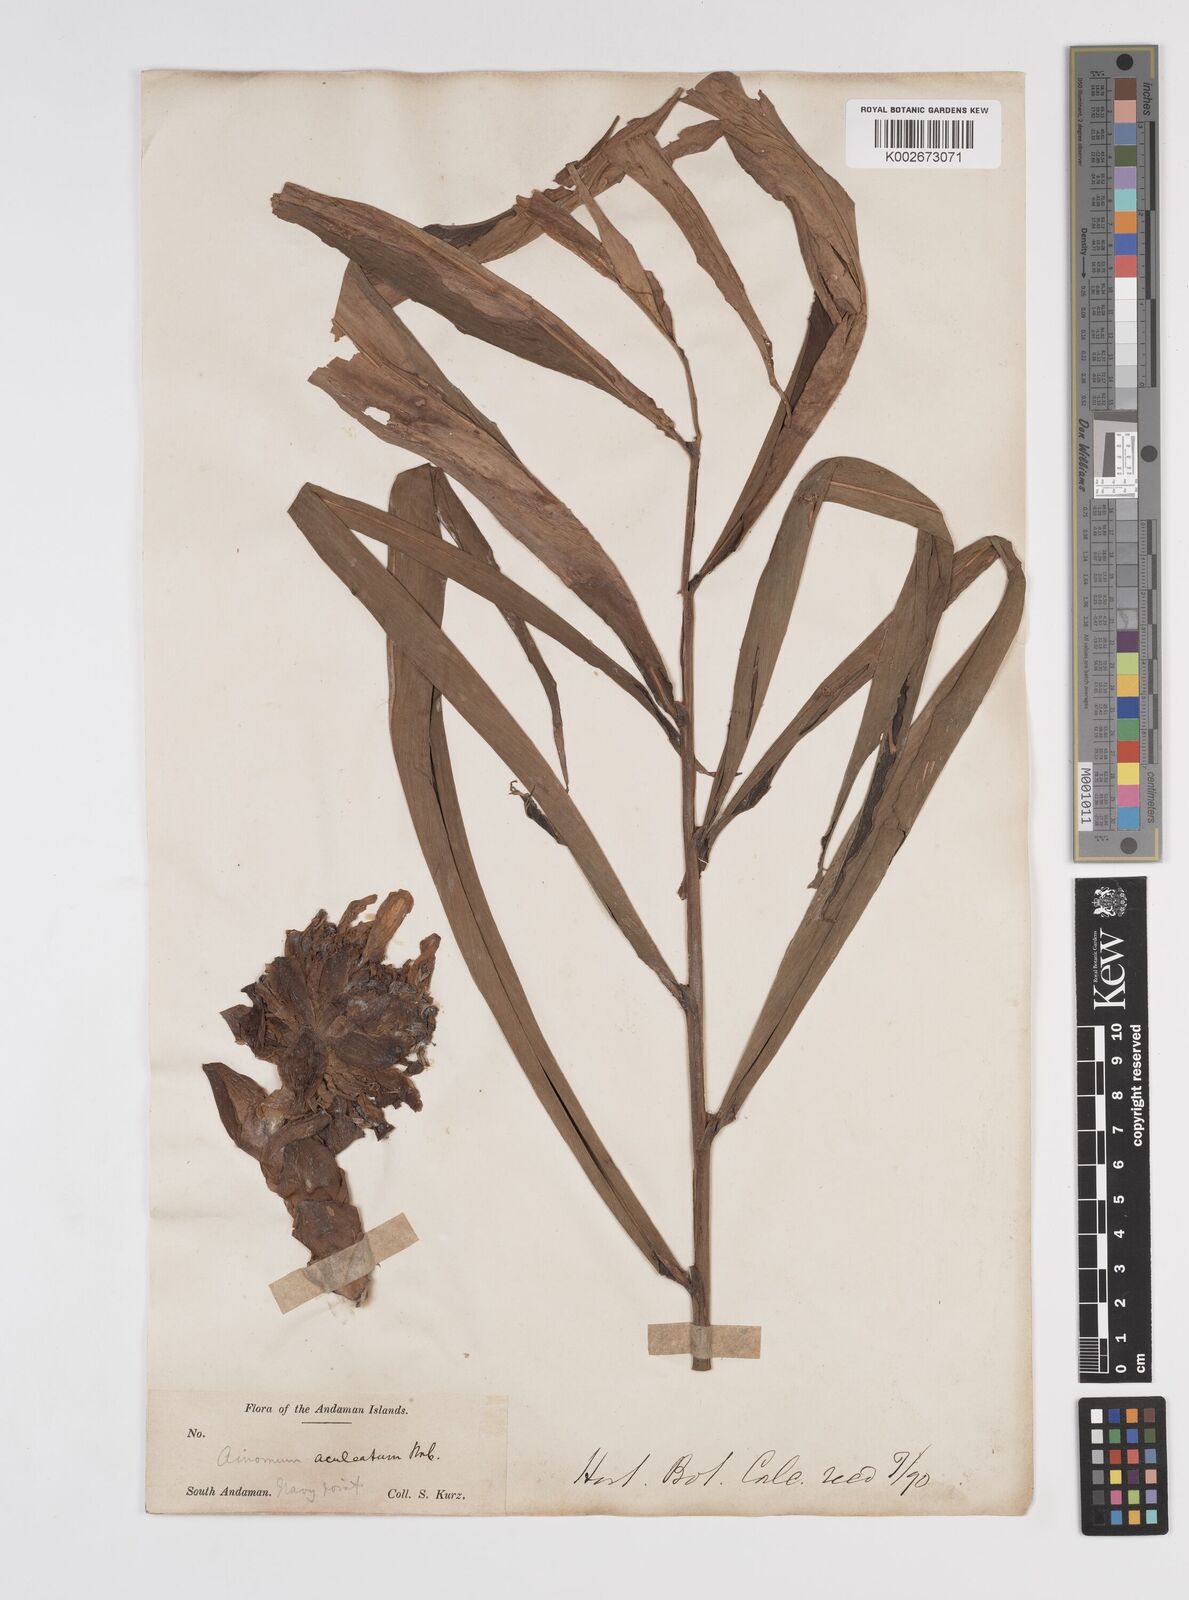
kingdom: Plantae
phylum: Tracheophyta
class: Liliopsida
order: Zingiberales
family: Zingiberaceae
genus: Meistera
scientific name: Meistera aculeata
